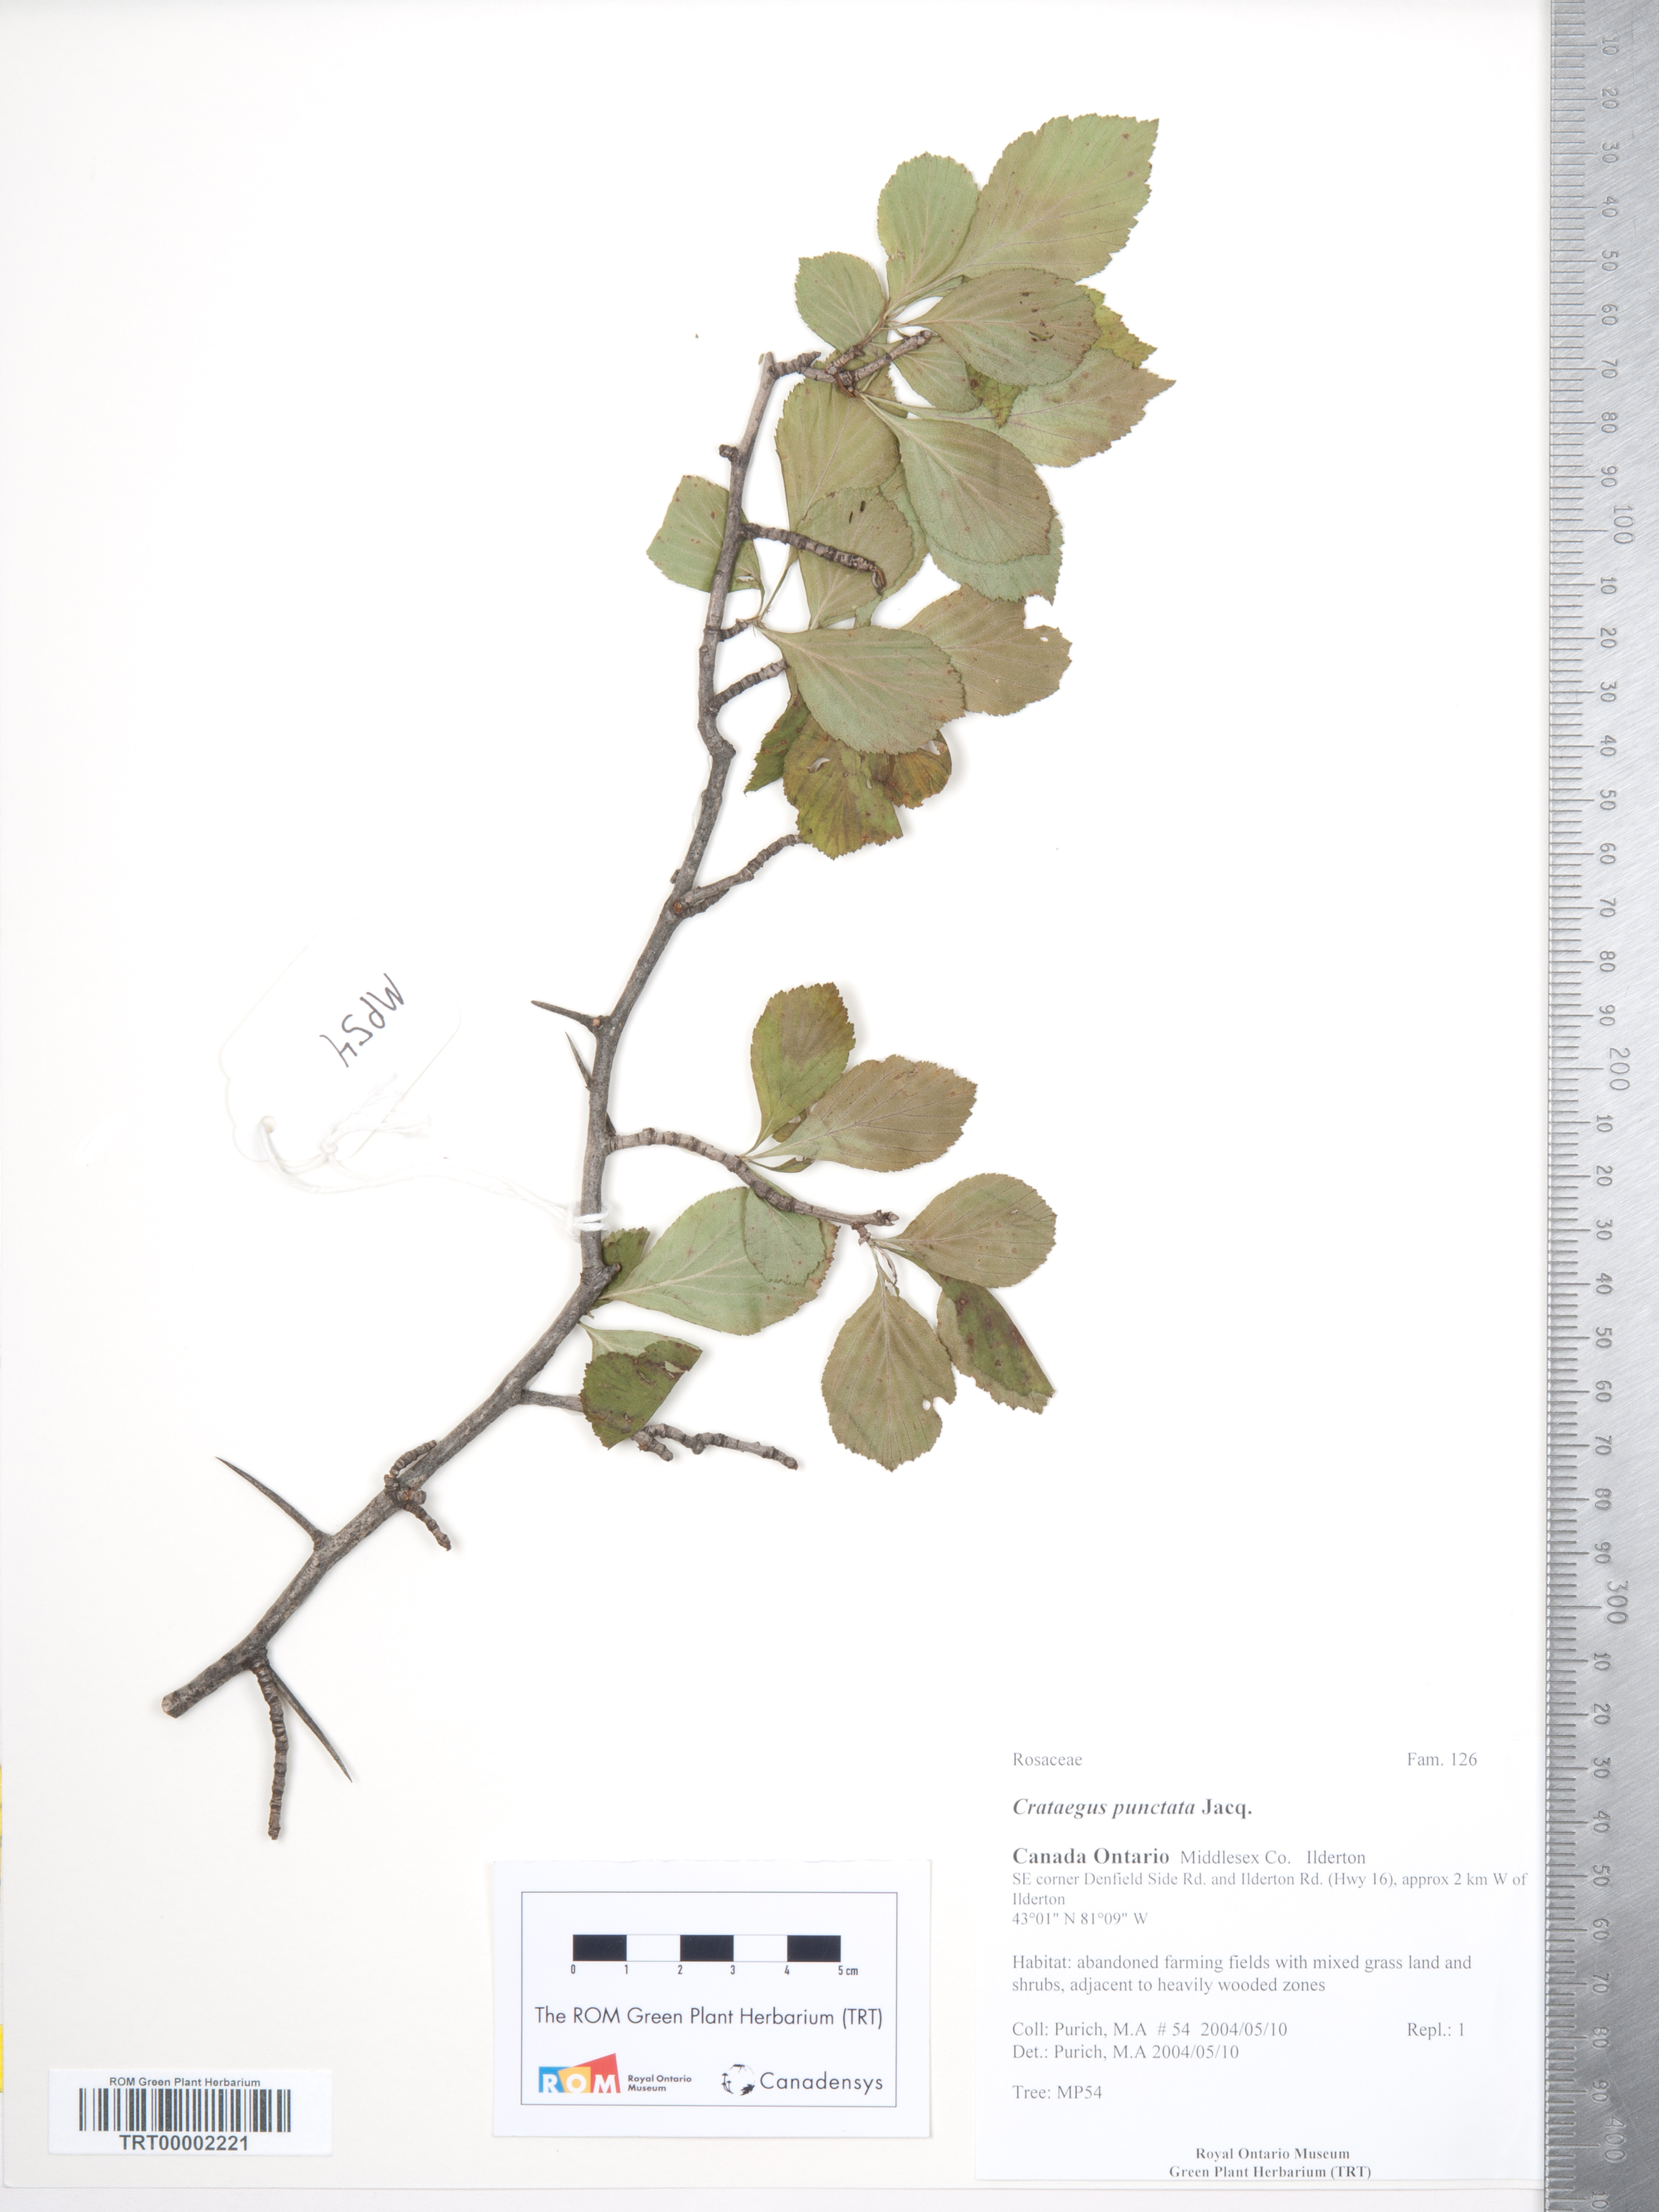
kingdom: Plantae
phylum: Tracheophyta
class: Magnoliopsida
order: Rosales
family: Rosaceae
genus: Crataegus
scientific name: Crataegus punctata
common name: Dotted hawthorn
